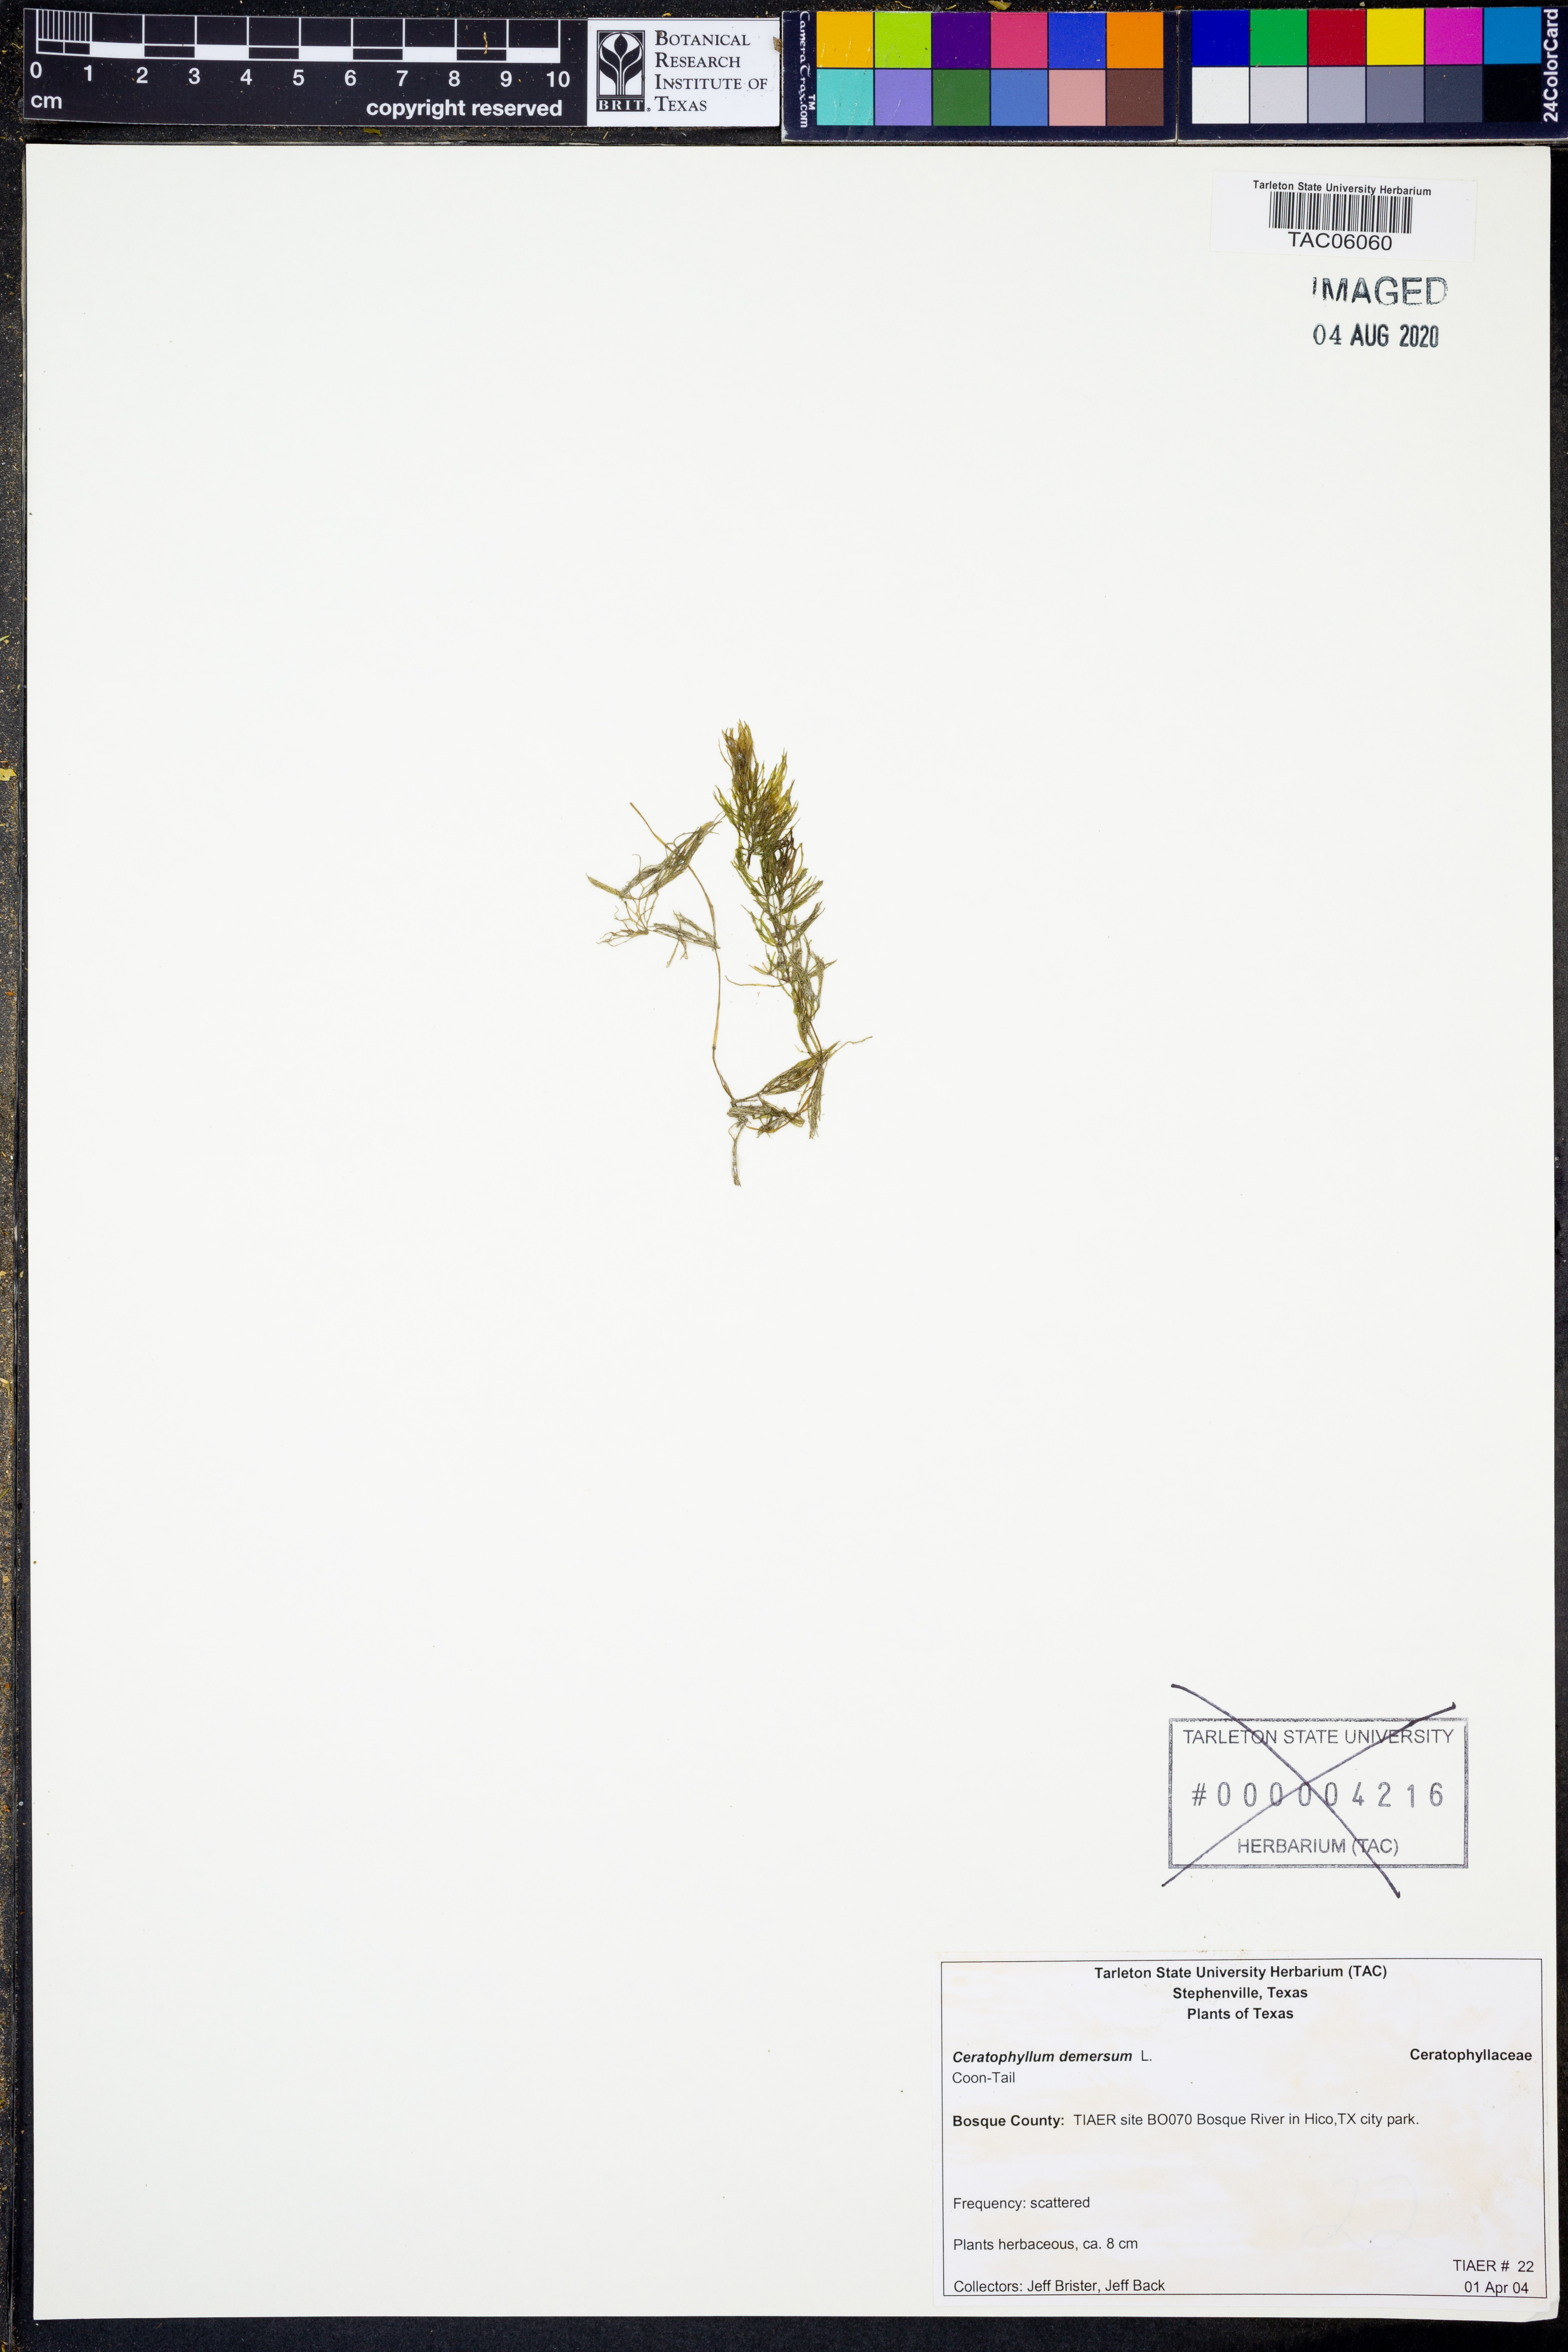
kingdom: Plantae
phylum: Tracheophyta
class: Magnoliopsida
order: Ceratophyllales
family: Ceratophyllaceae
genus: Ceratophyllum
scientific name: Ceratophyllum demersum
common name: Rigid hornwort
